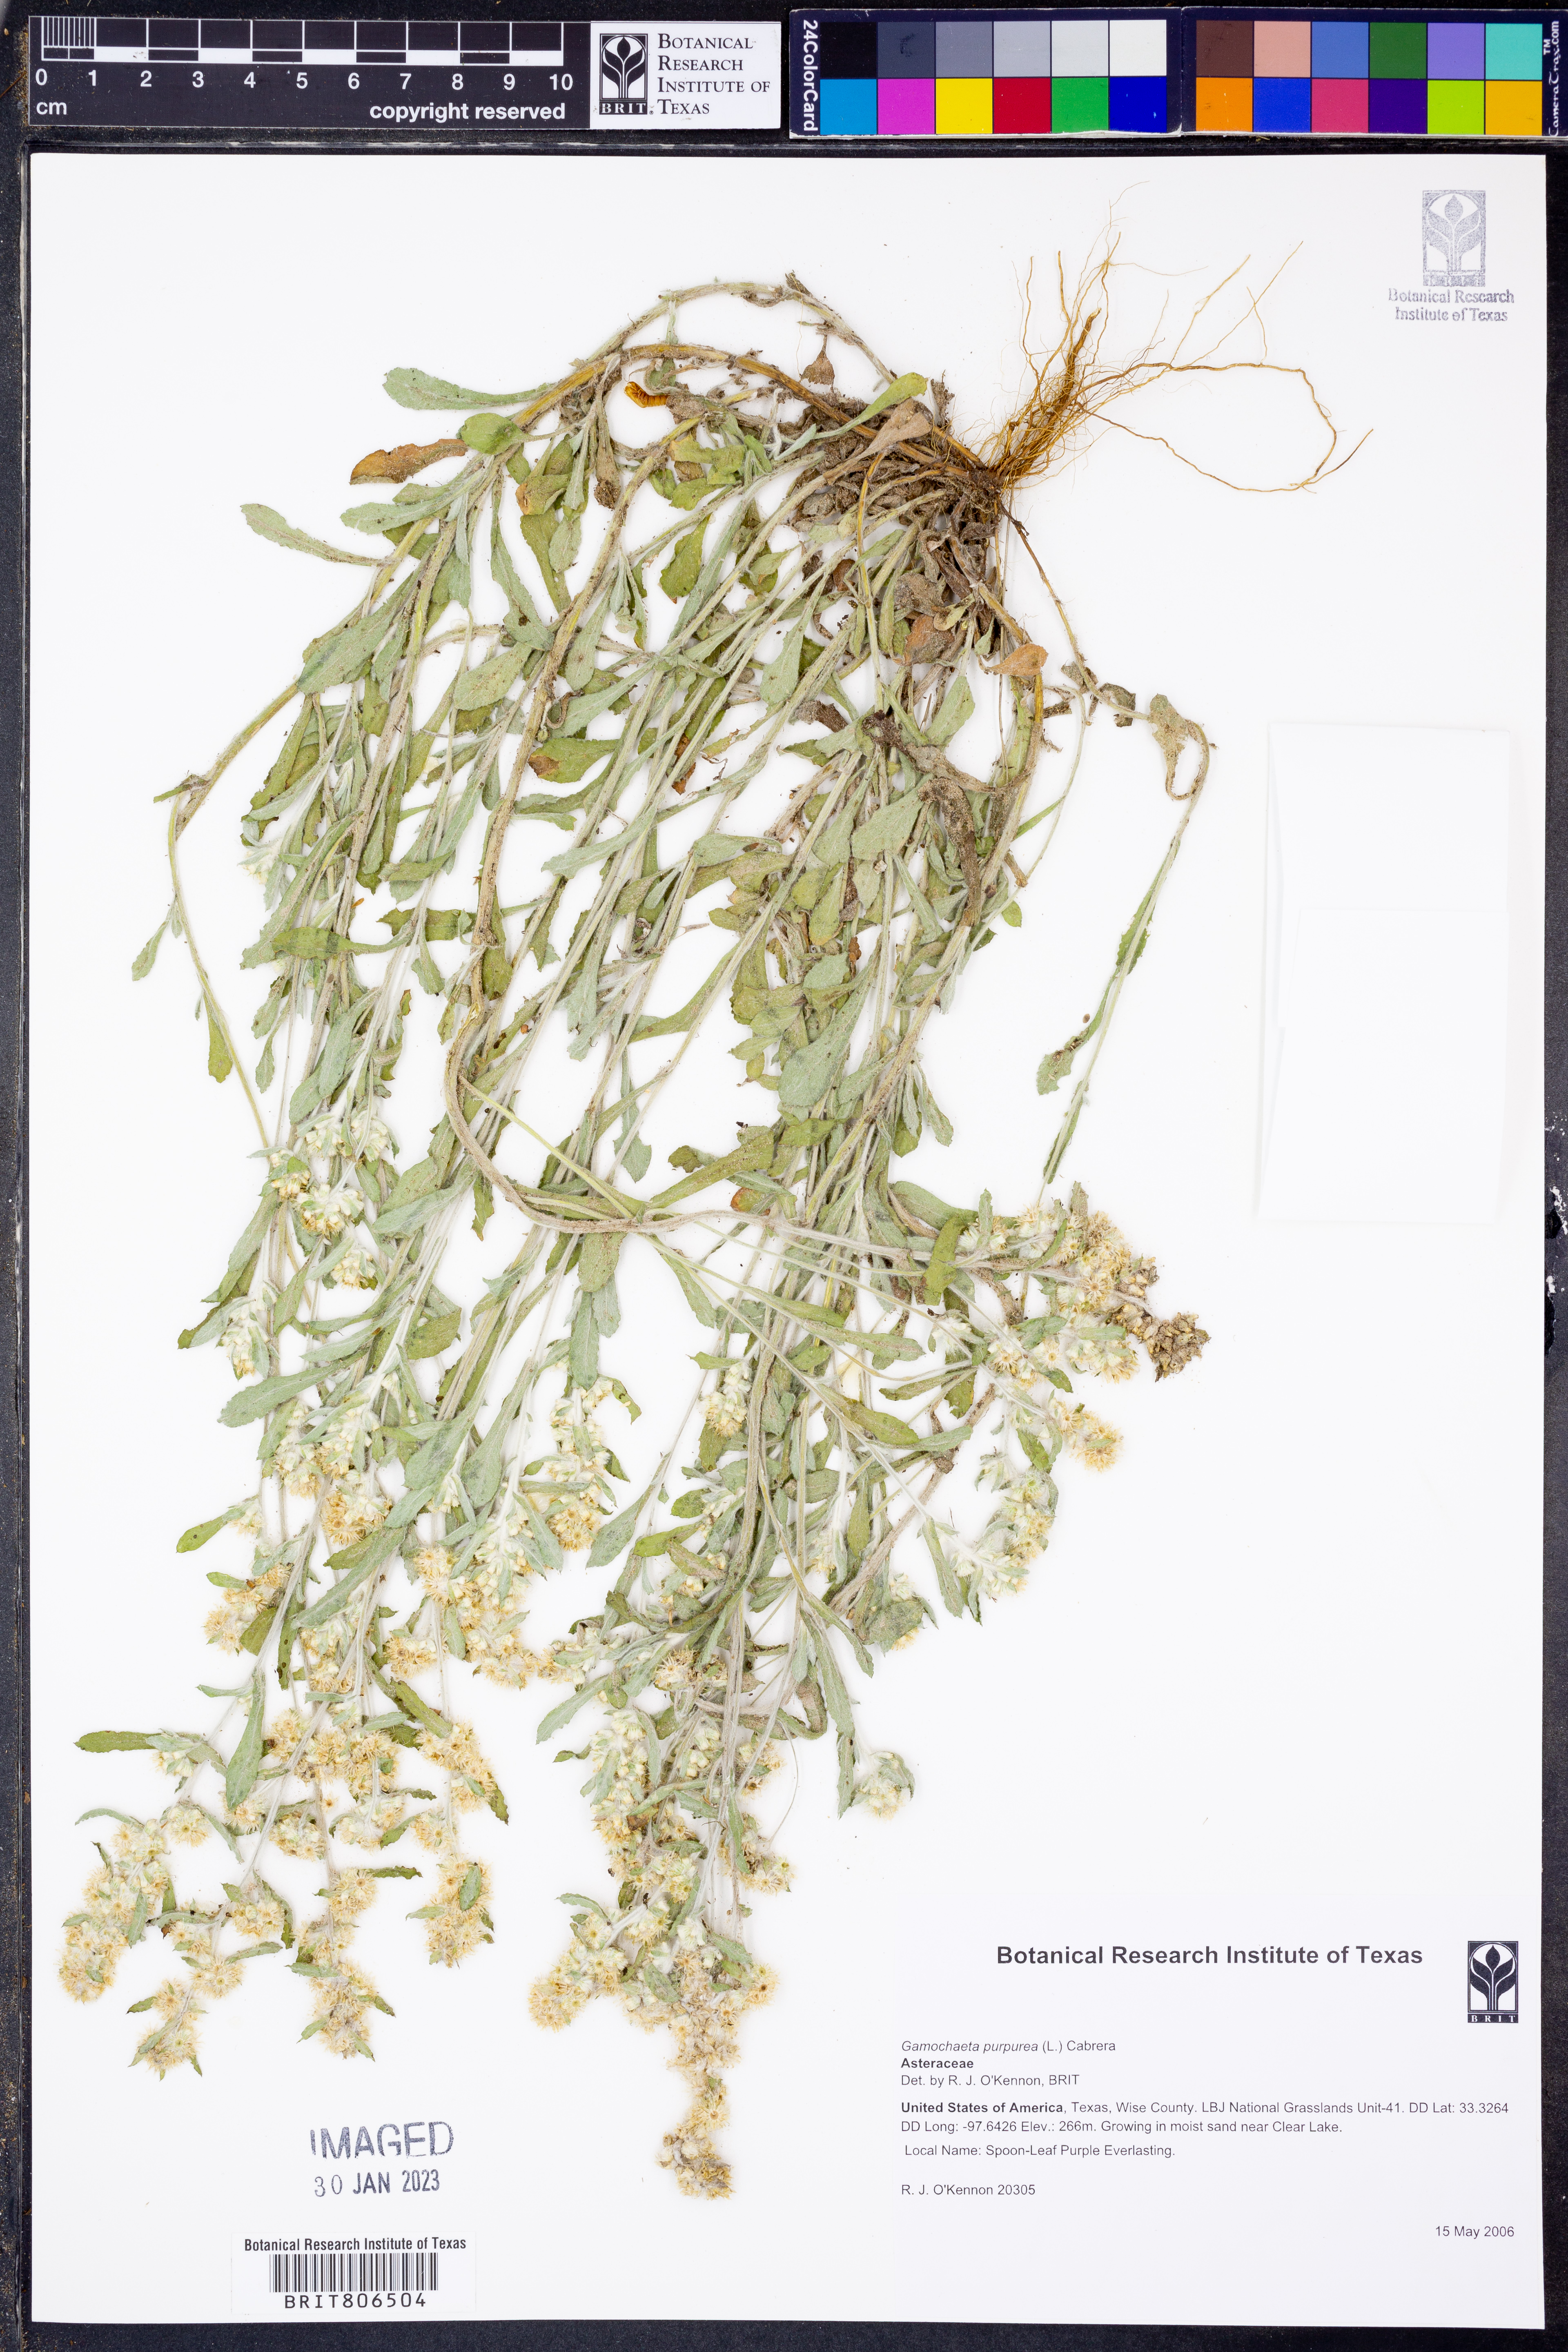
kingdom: Plantae
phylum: Tracheophyta
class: Magnoliopsida
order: Asterales
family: Asteraceae
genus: Gamochaeta
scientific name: Gamochaeta purpurea
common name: Purple cudweed
